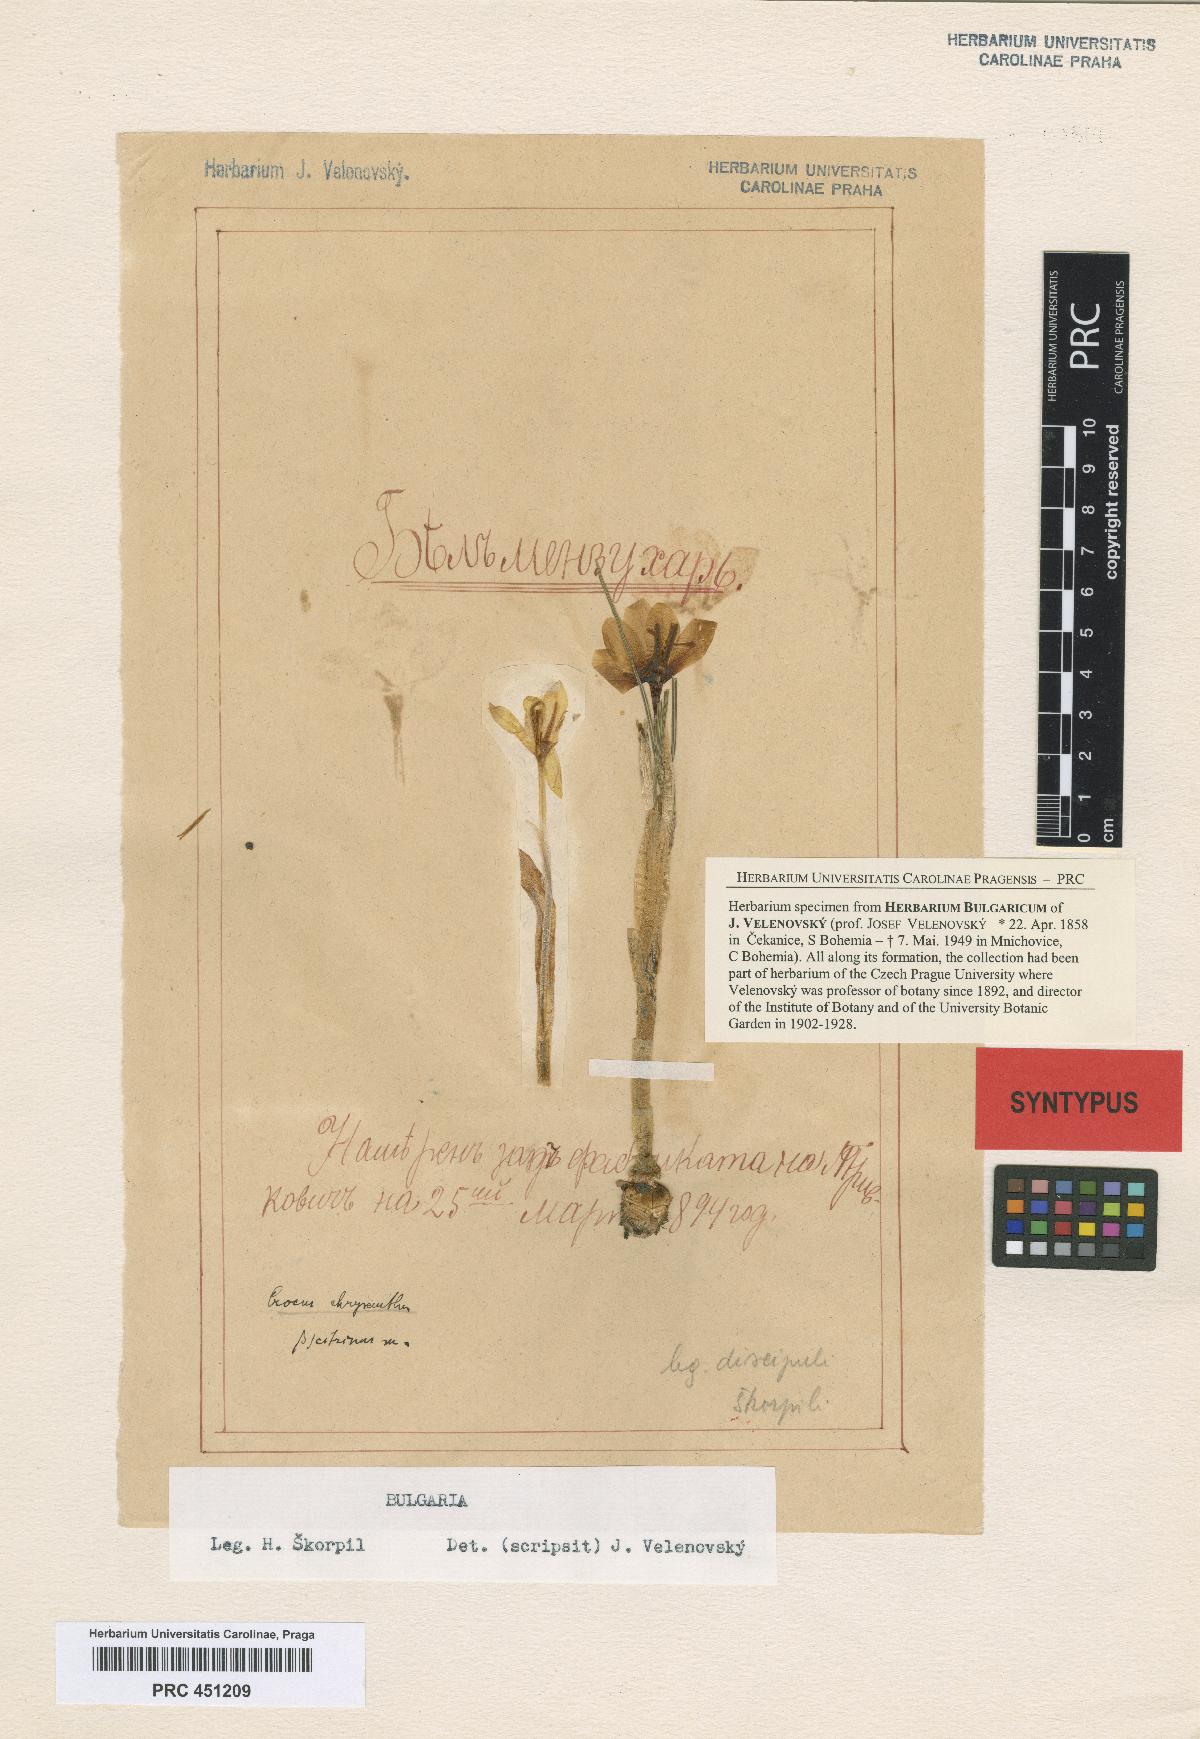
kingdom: Plantae
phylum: Tracheophyta
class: Liliopsida
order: Asparagales
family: Iridaceae
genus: Crocus
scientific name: Crocus chrysanthus
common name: Golden crocus
